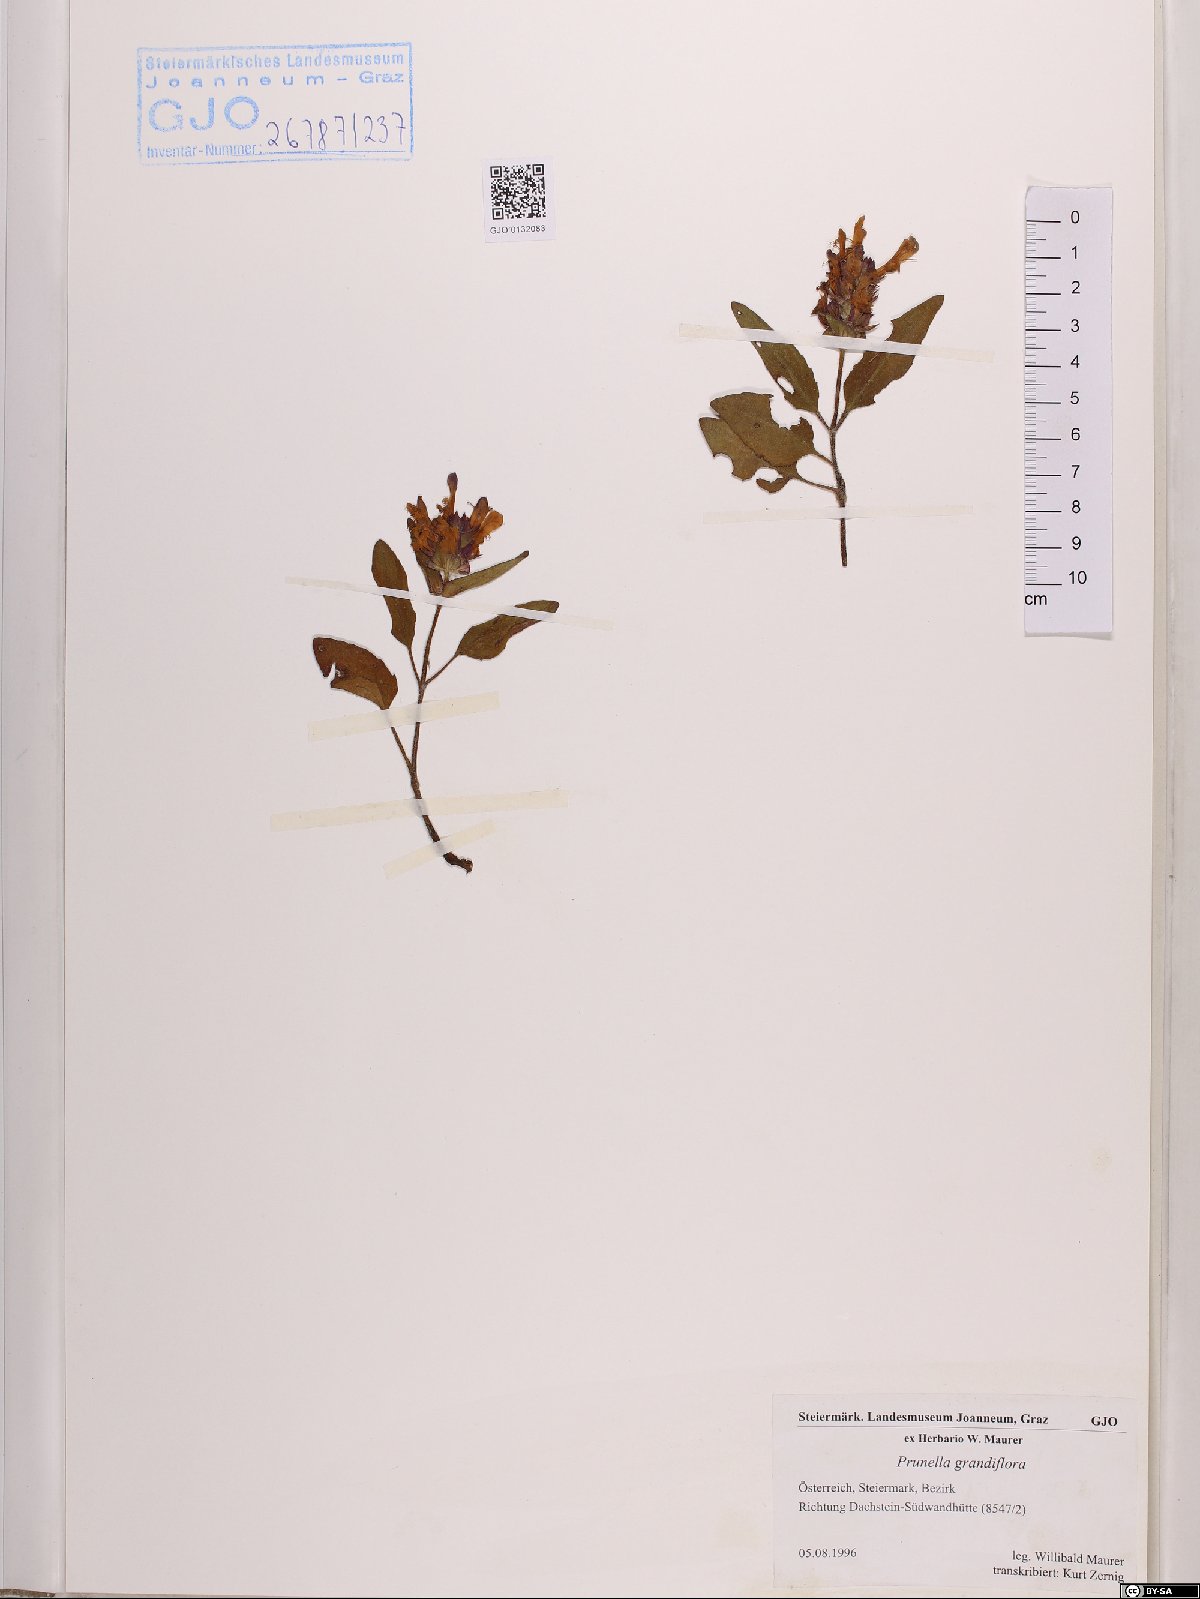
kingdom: Plantae
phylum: Tracheophyta
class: Magnoliopsida
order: Lamiales
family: Lamiaceae
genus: Prunella
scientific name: Prunella grandiflora
